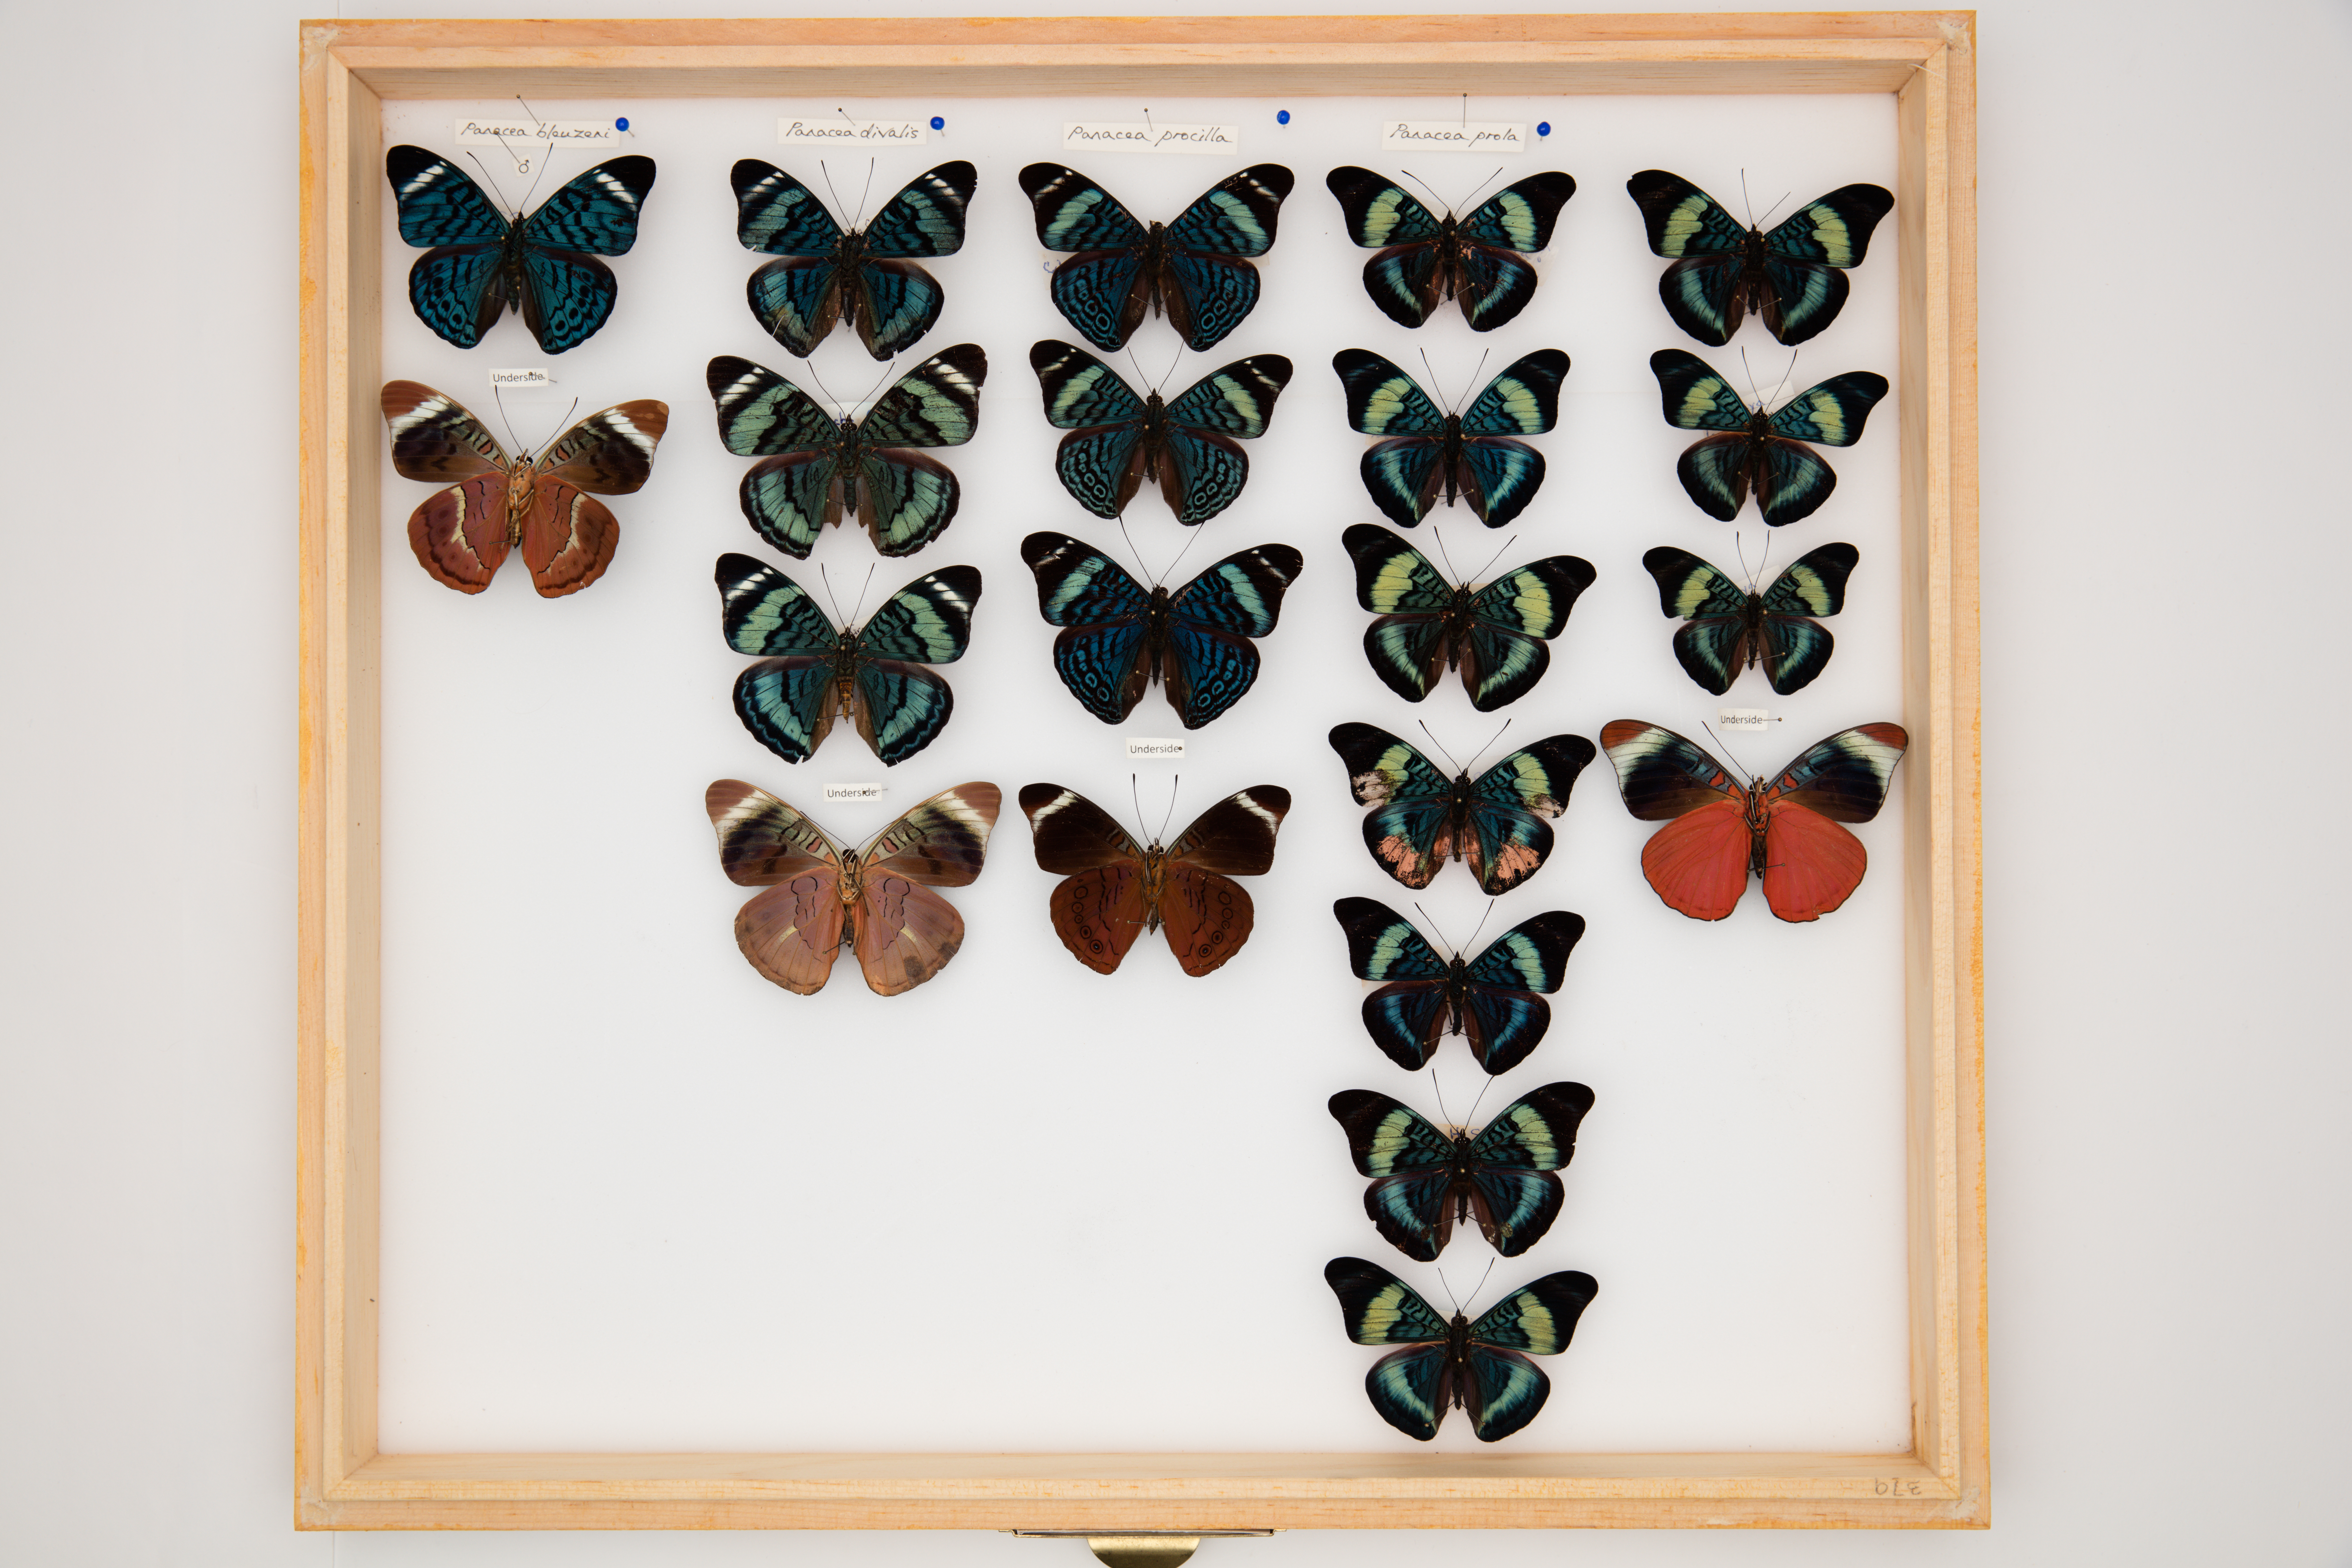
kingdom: Animalia
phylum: Arthropoda
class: Insecta
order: Lepidoptera
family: Nymphalidae
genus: Panacea
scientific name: Panacea procilla
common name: Procilla beauty
